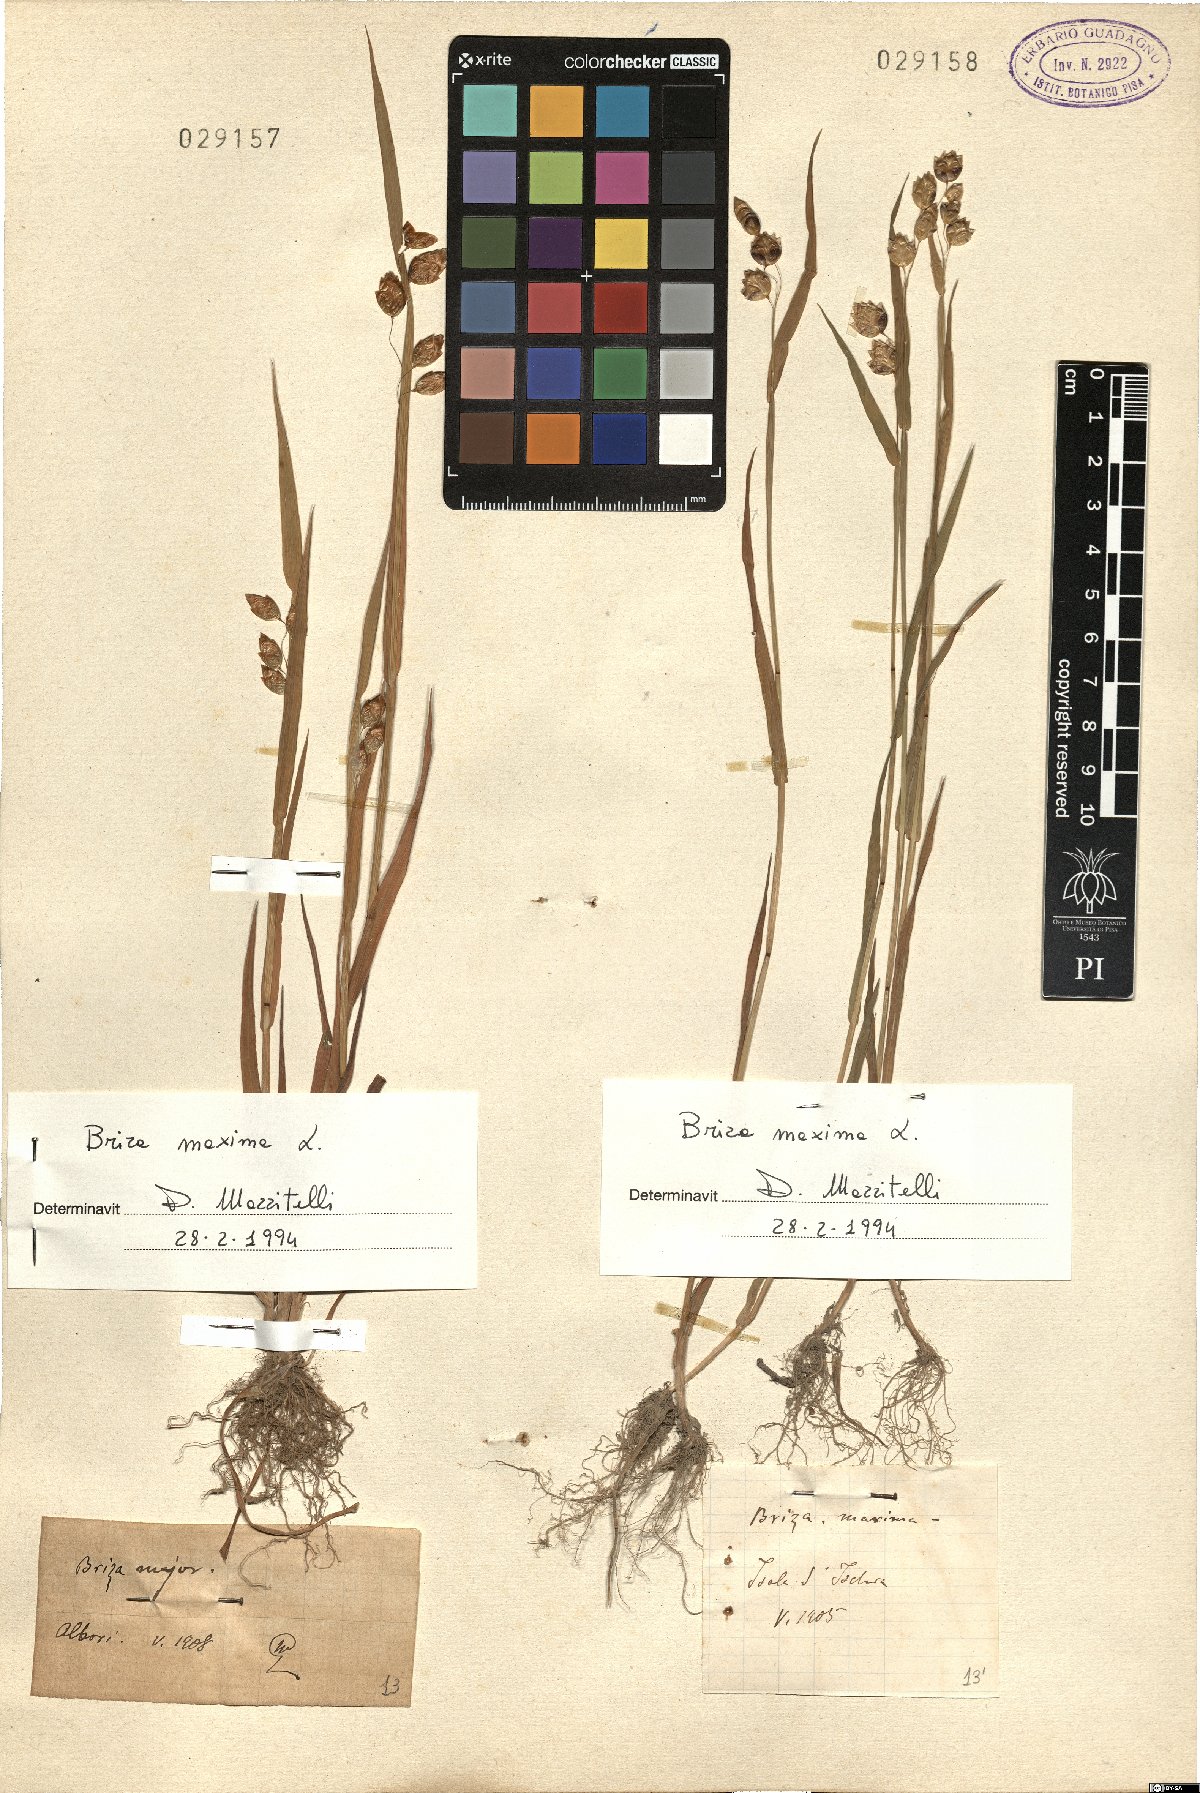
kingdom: Plantae
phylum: Tracheophyta
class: Liliopsida
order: Poales
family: Poaceae
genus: Briza
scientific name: Briza maxima
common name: Big quakinggrass
